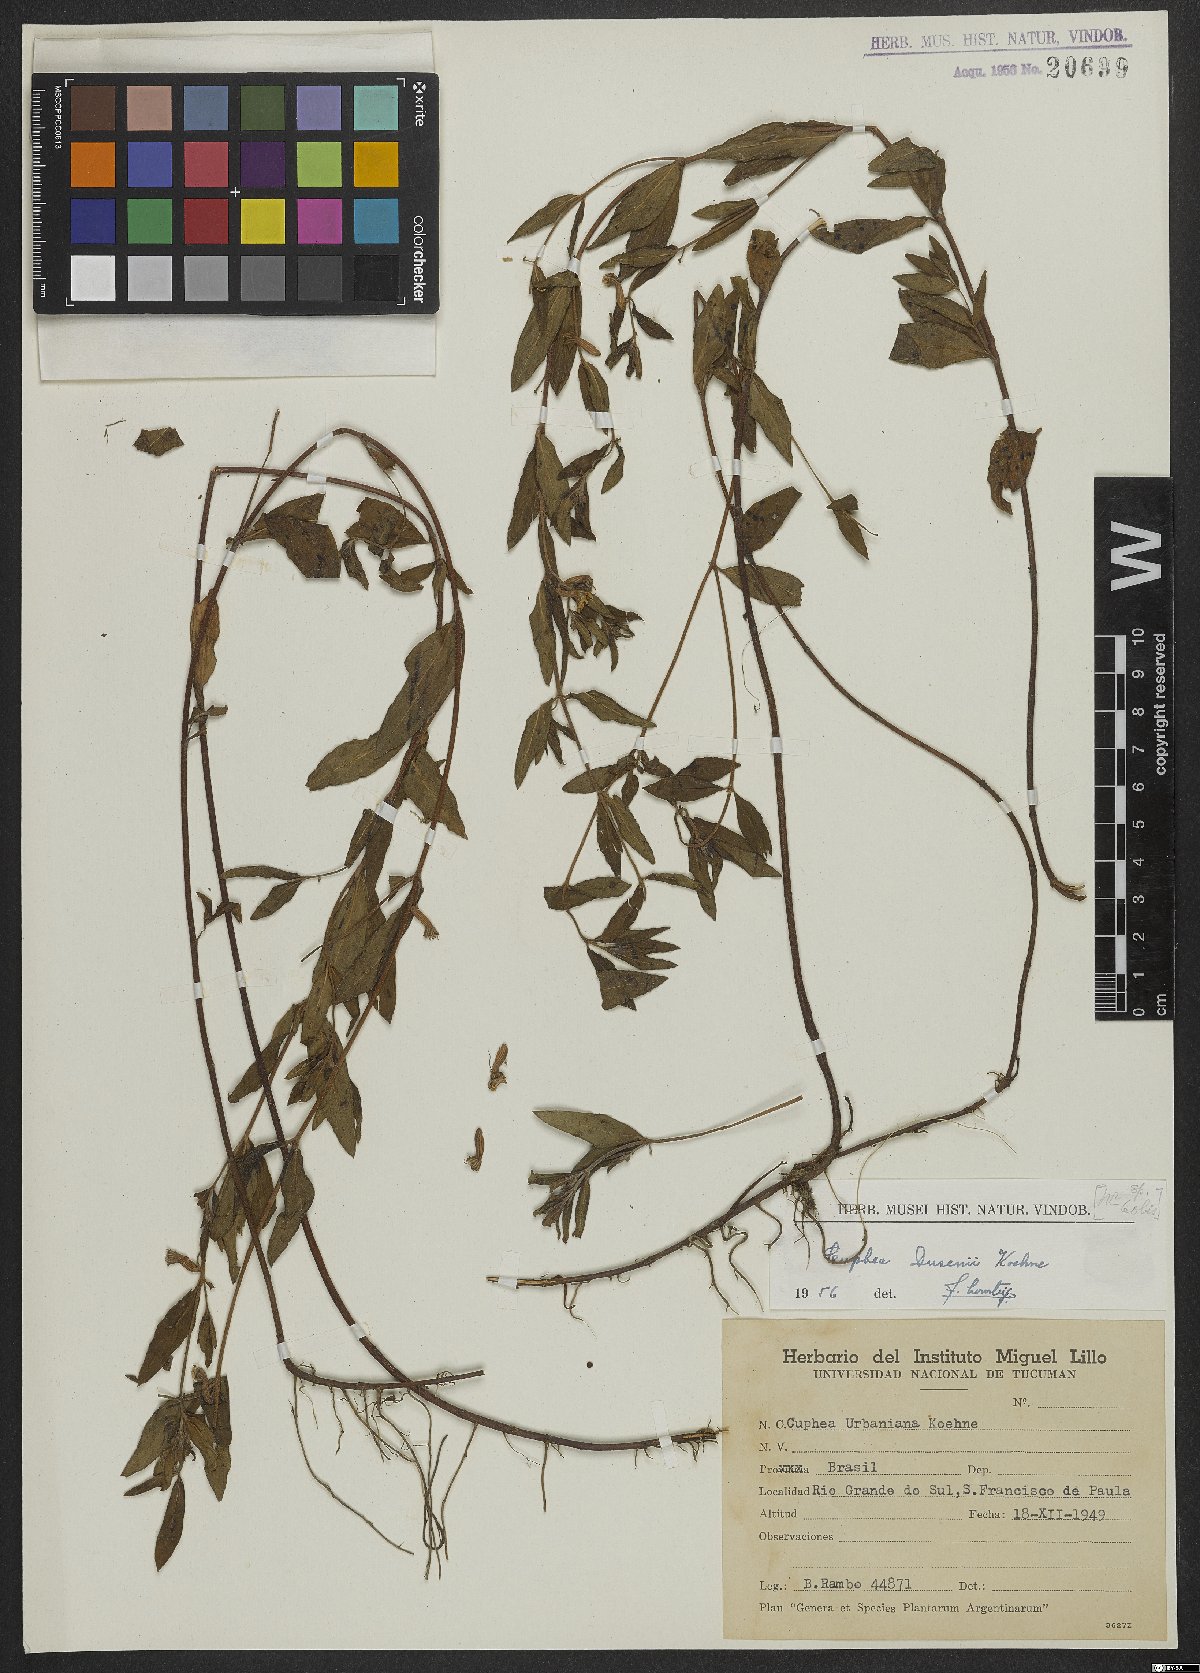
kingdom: Plantae
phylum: Tracheophyta
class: Magnoliopsida
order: Myrtales
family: Lythraceae
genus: Cuphea
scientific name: Cuphea dusenii
